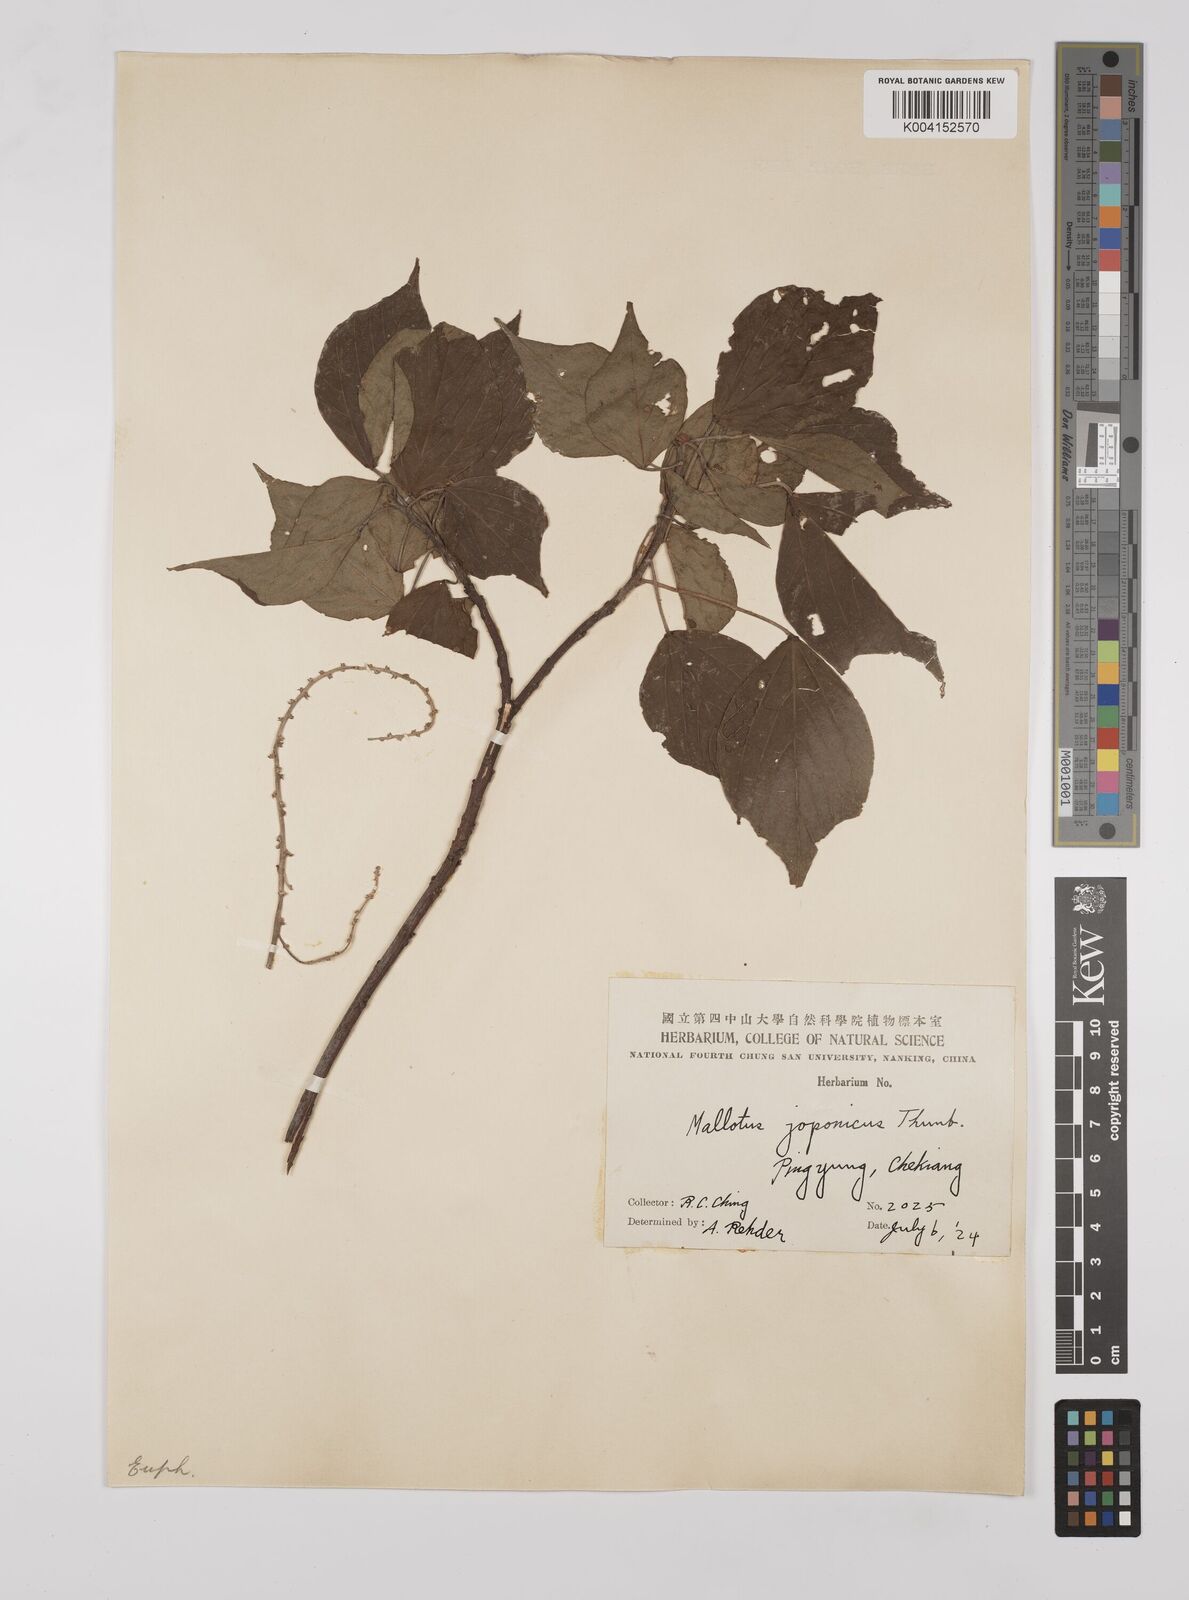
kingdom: Plantae
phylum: Tracheophyta
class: Magnoliopsida
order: Malpighiales
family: Euphorbiaceae
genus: Mallotus
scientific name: Mallotus japonicus
